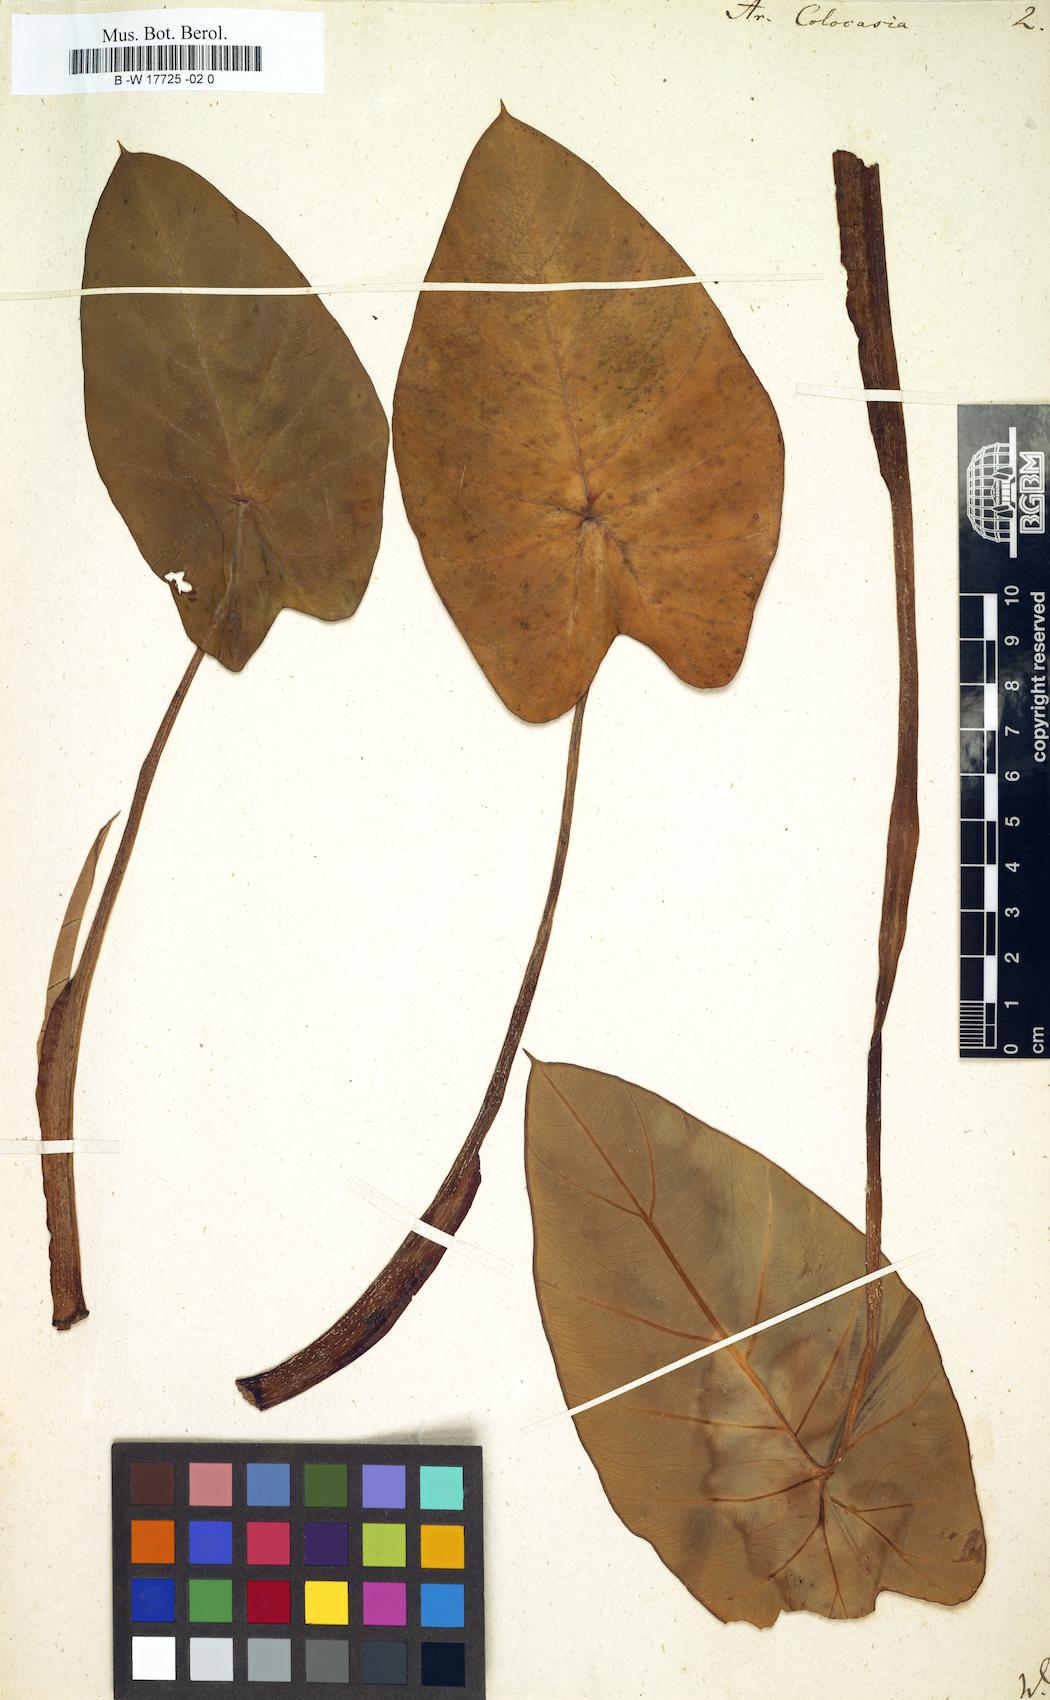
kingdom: Plantae
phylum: Tracheophyta
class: Liliopsida
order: Alismatales
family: Araceae
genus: Colocasia
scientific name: Colocasia esculenta
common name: Taro
